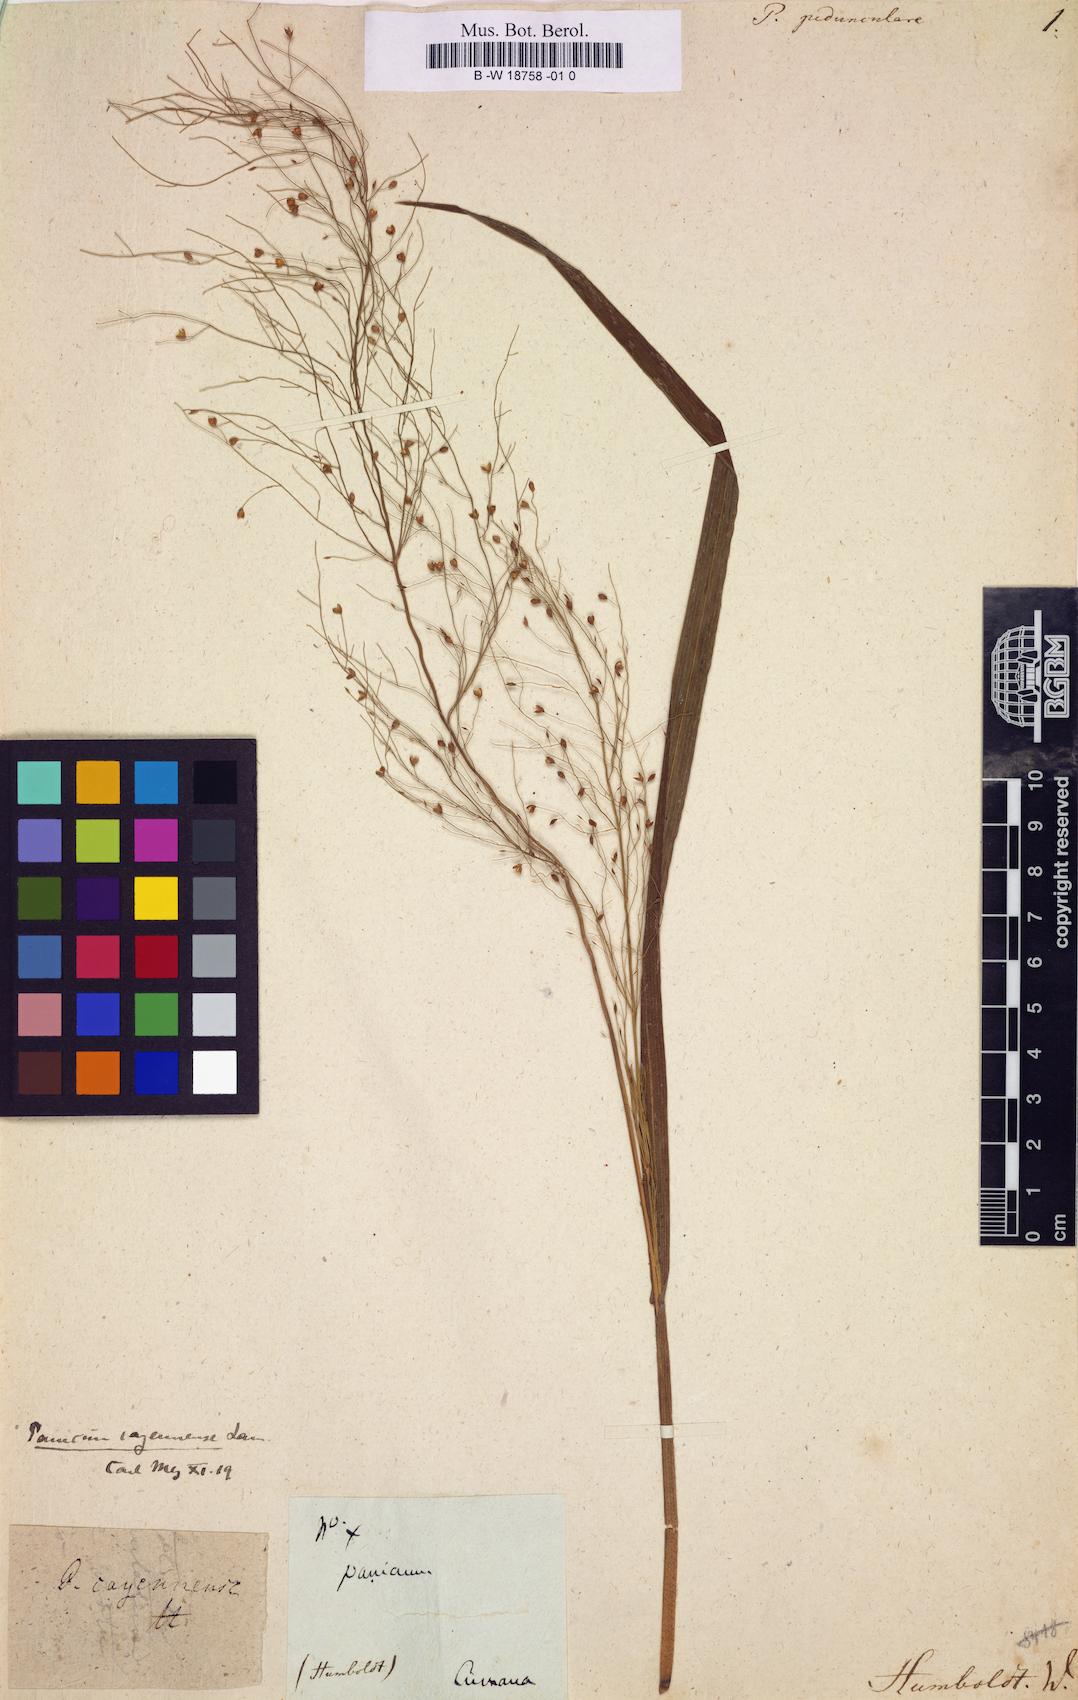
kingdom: Plantae
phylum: Tracheophyta
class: Liliopsida
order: Poales
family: Poaceae
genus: Panicum
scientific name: Panicum cayennense
